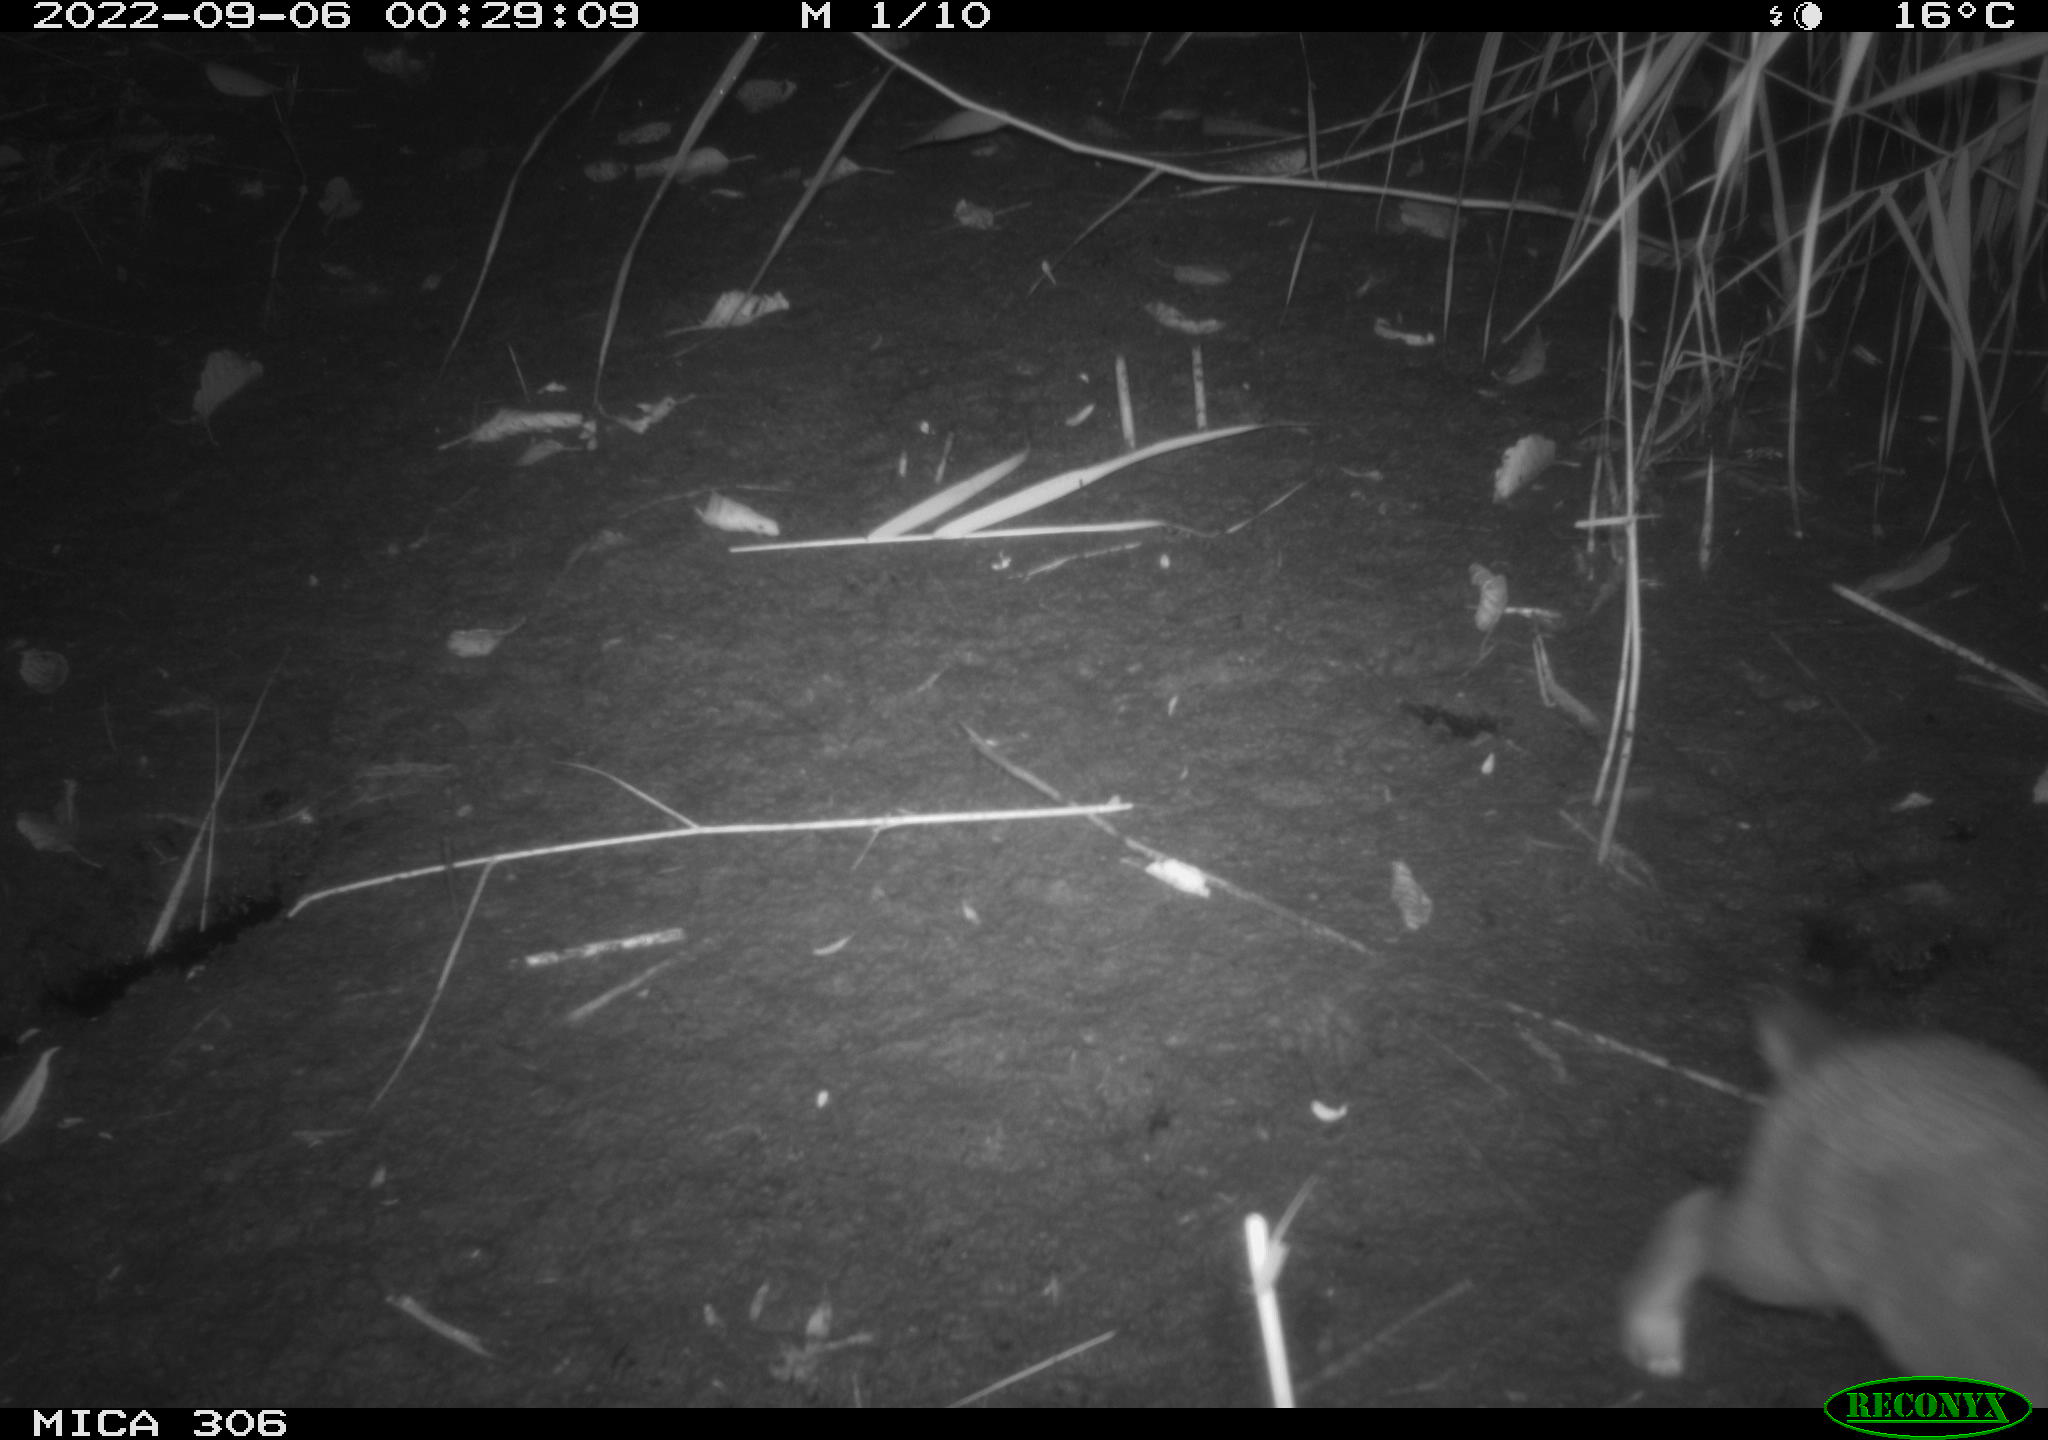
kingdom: Animalia
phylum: Chordata
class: Mammalia
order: Lagomorpha
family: Leporidae
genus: Oryctolagus
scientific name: Oryctolagus cuniculus
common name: European rabbit
